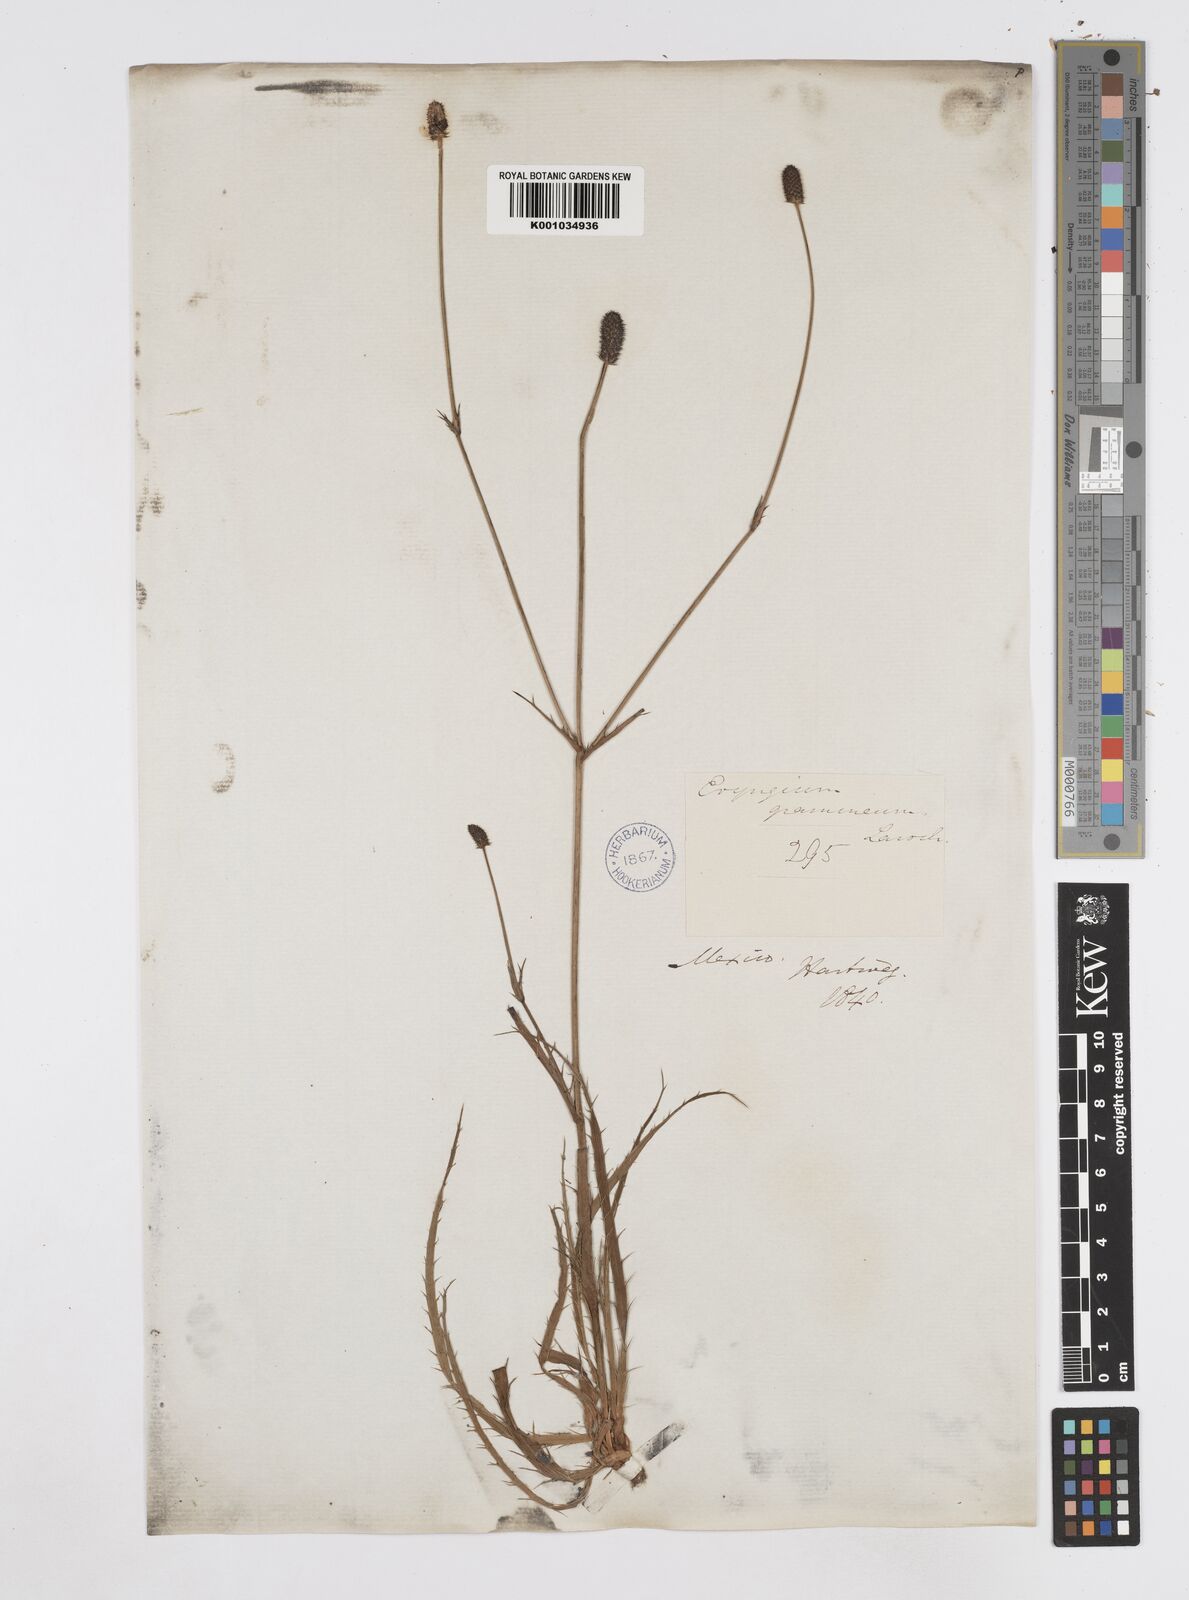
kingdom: Plantae
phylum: Tracheophyta
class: Magnoliopsida
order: Apiales
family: Apiaceae
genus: Eryngium
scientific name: Eryngium boissieuanum
